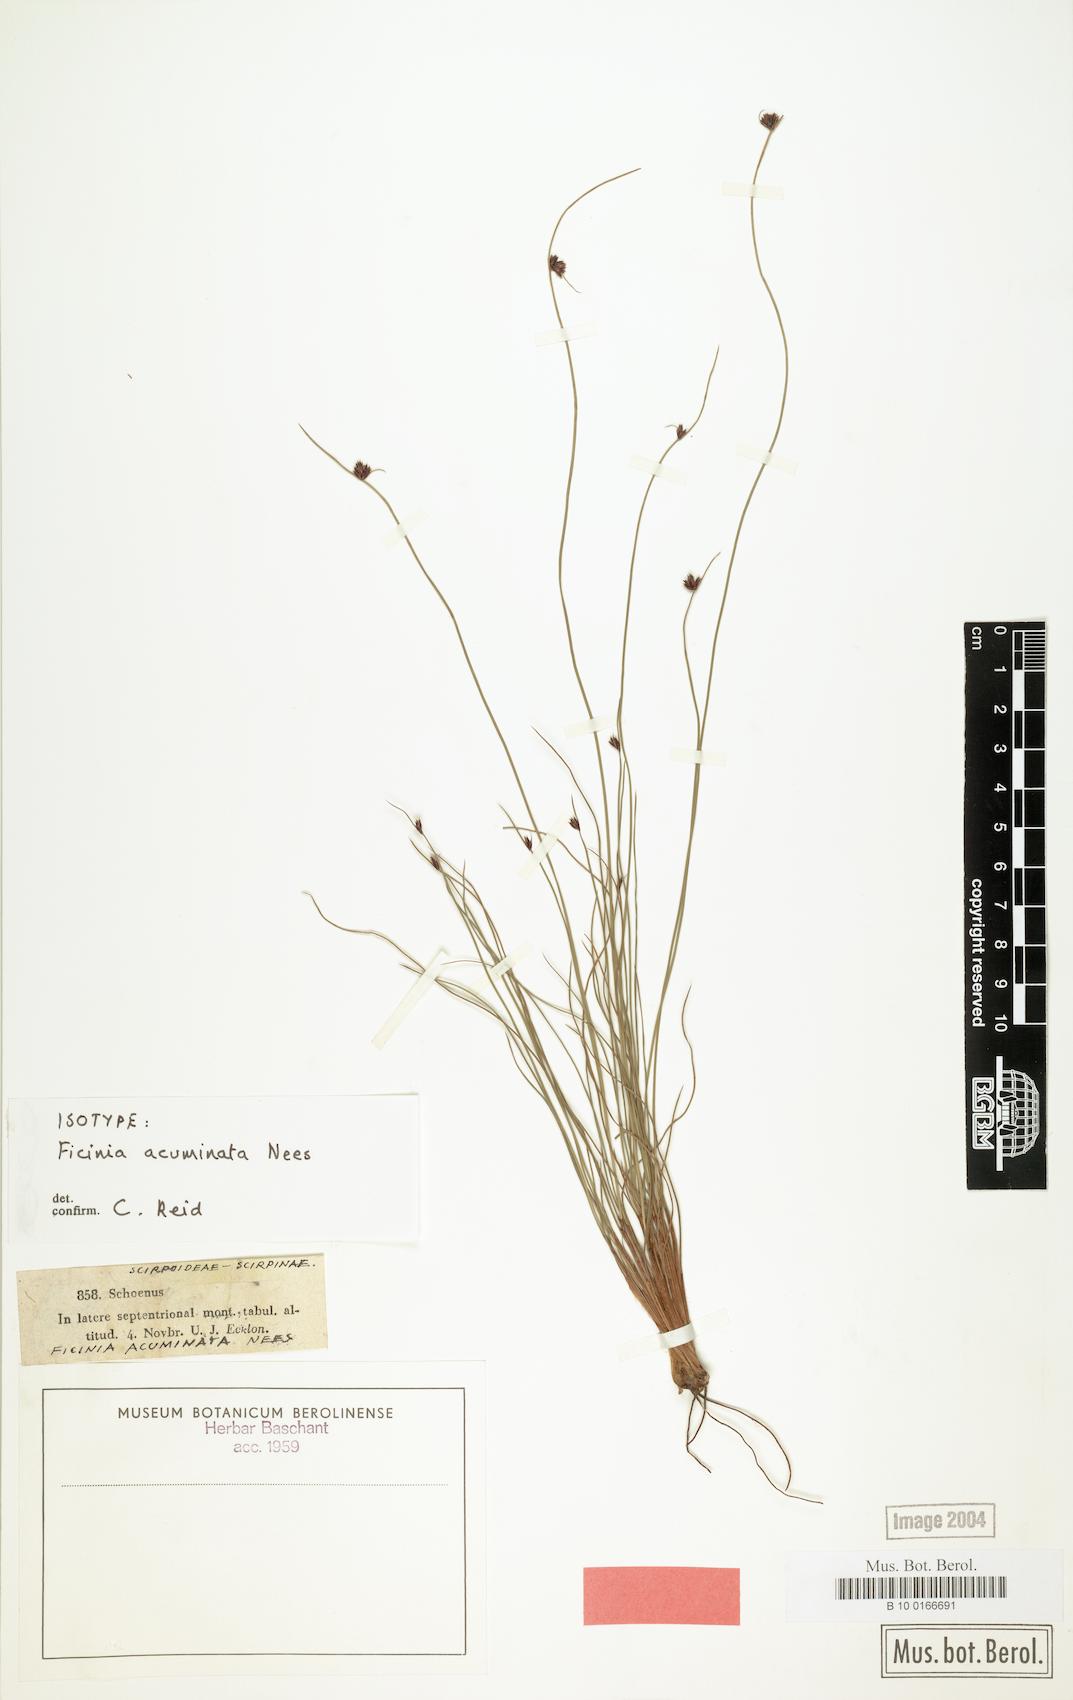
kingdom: Plantae
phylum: Tracheophyta
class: Liliopsida
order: Poales
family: Cyperaceae
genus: Ficinia
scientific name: Ficinia acuminata
